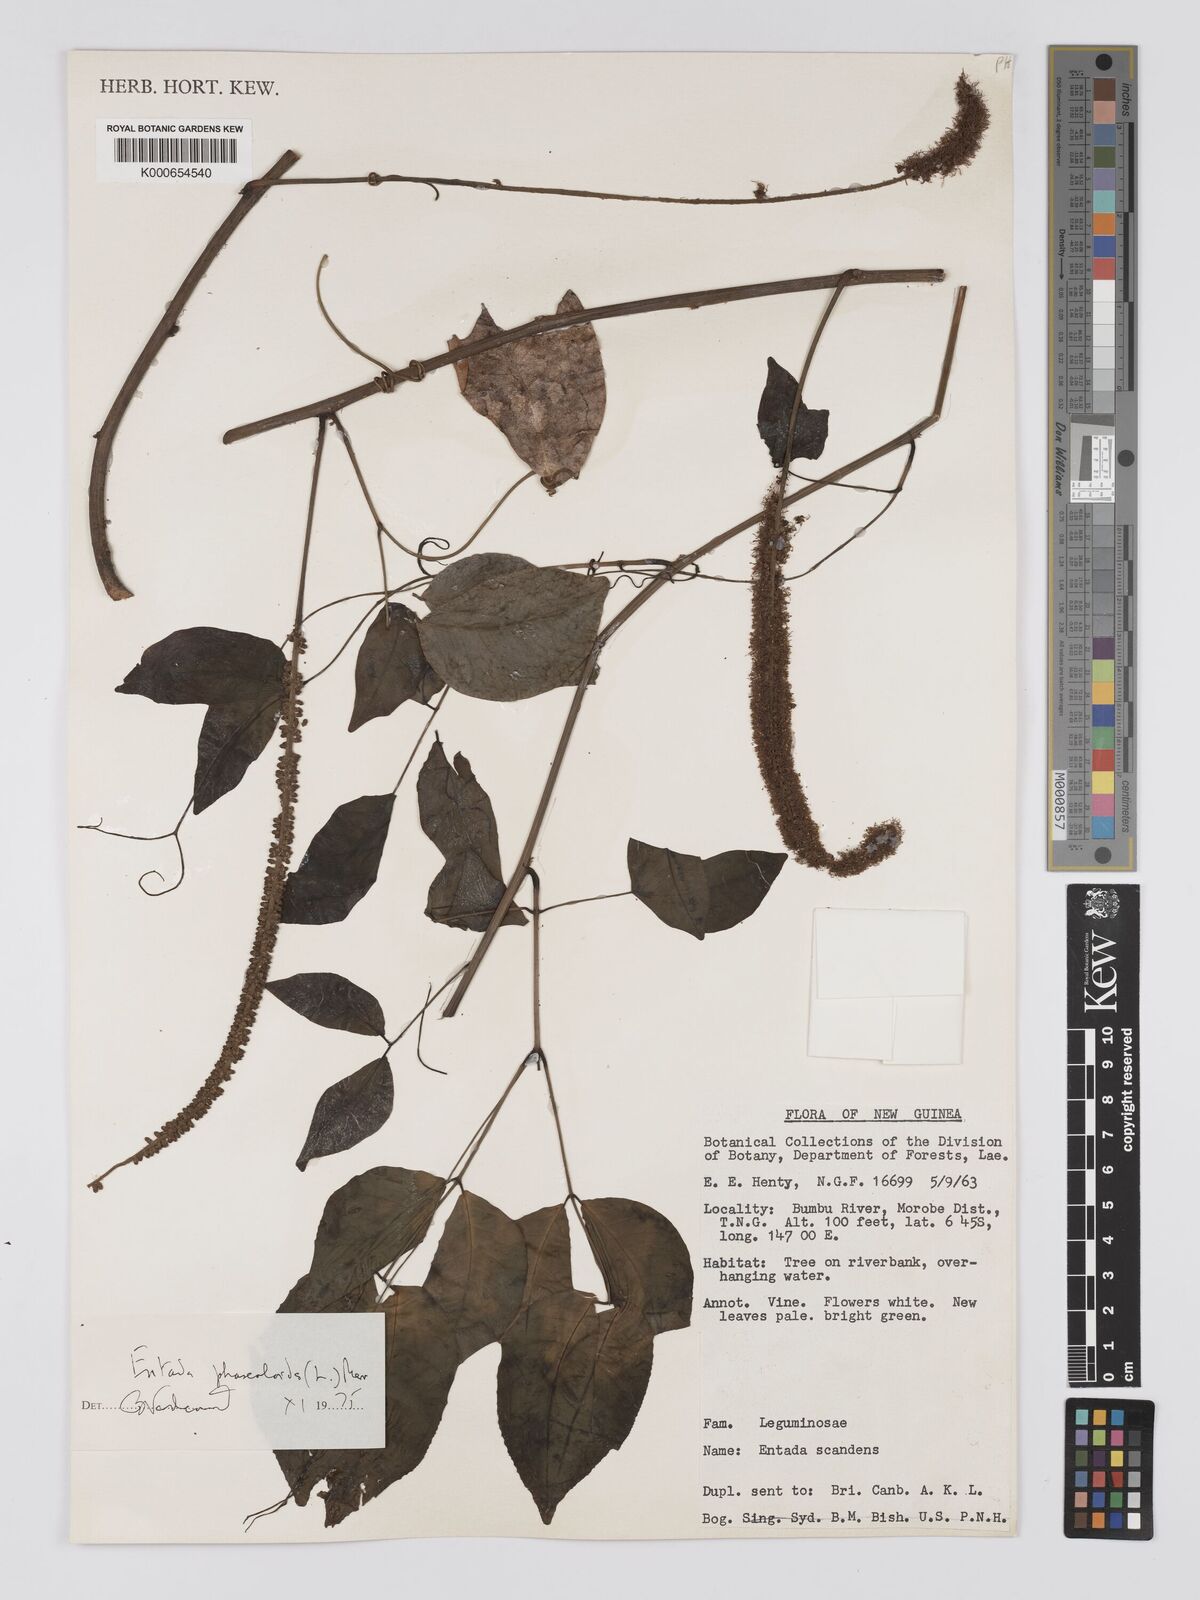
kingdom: Plantae
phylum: Tracheophyta
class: Magnoliopsida
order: Fabales
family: Fabaceae
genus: Entada
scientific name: Entada phaseoloides
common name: Matchbox-bean
